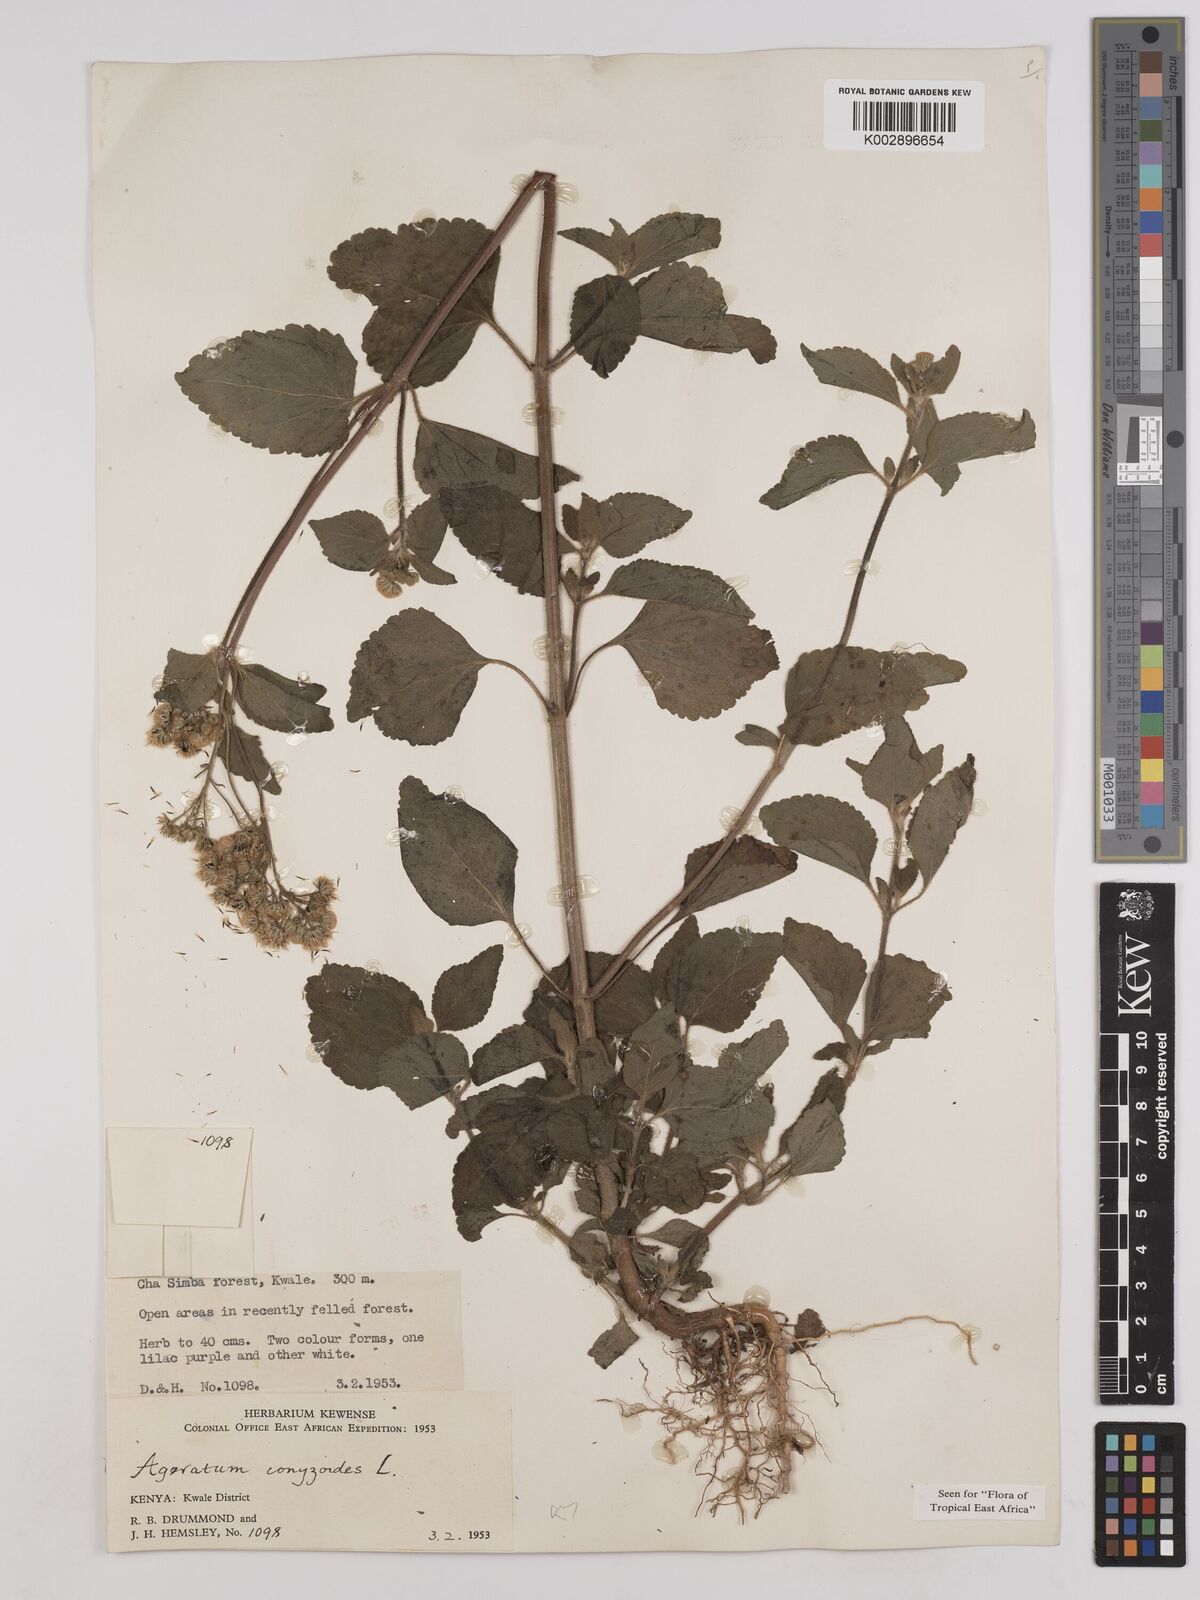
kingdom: Plantae
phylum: Tracheophyta
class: Magnoliopsida
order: Asterales
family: Asteraceae
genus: Ageratum
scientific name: Ageratum conyzoides
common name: Tropical whiteweed
